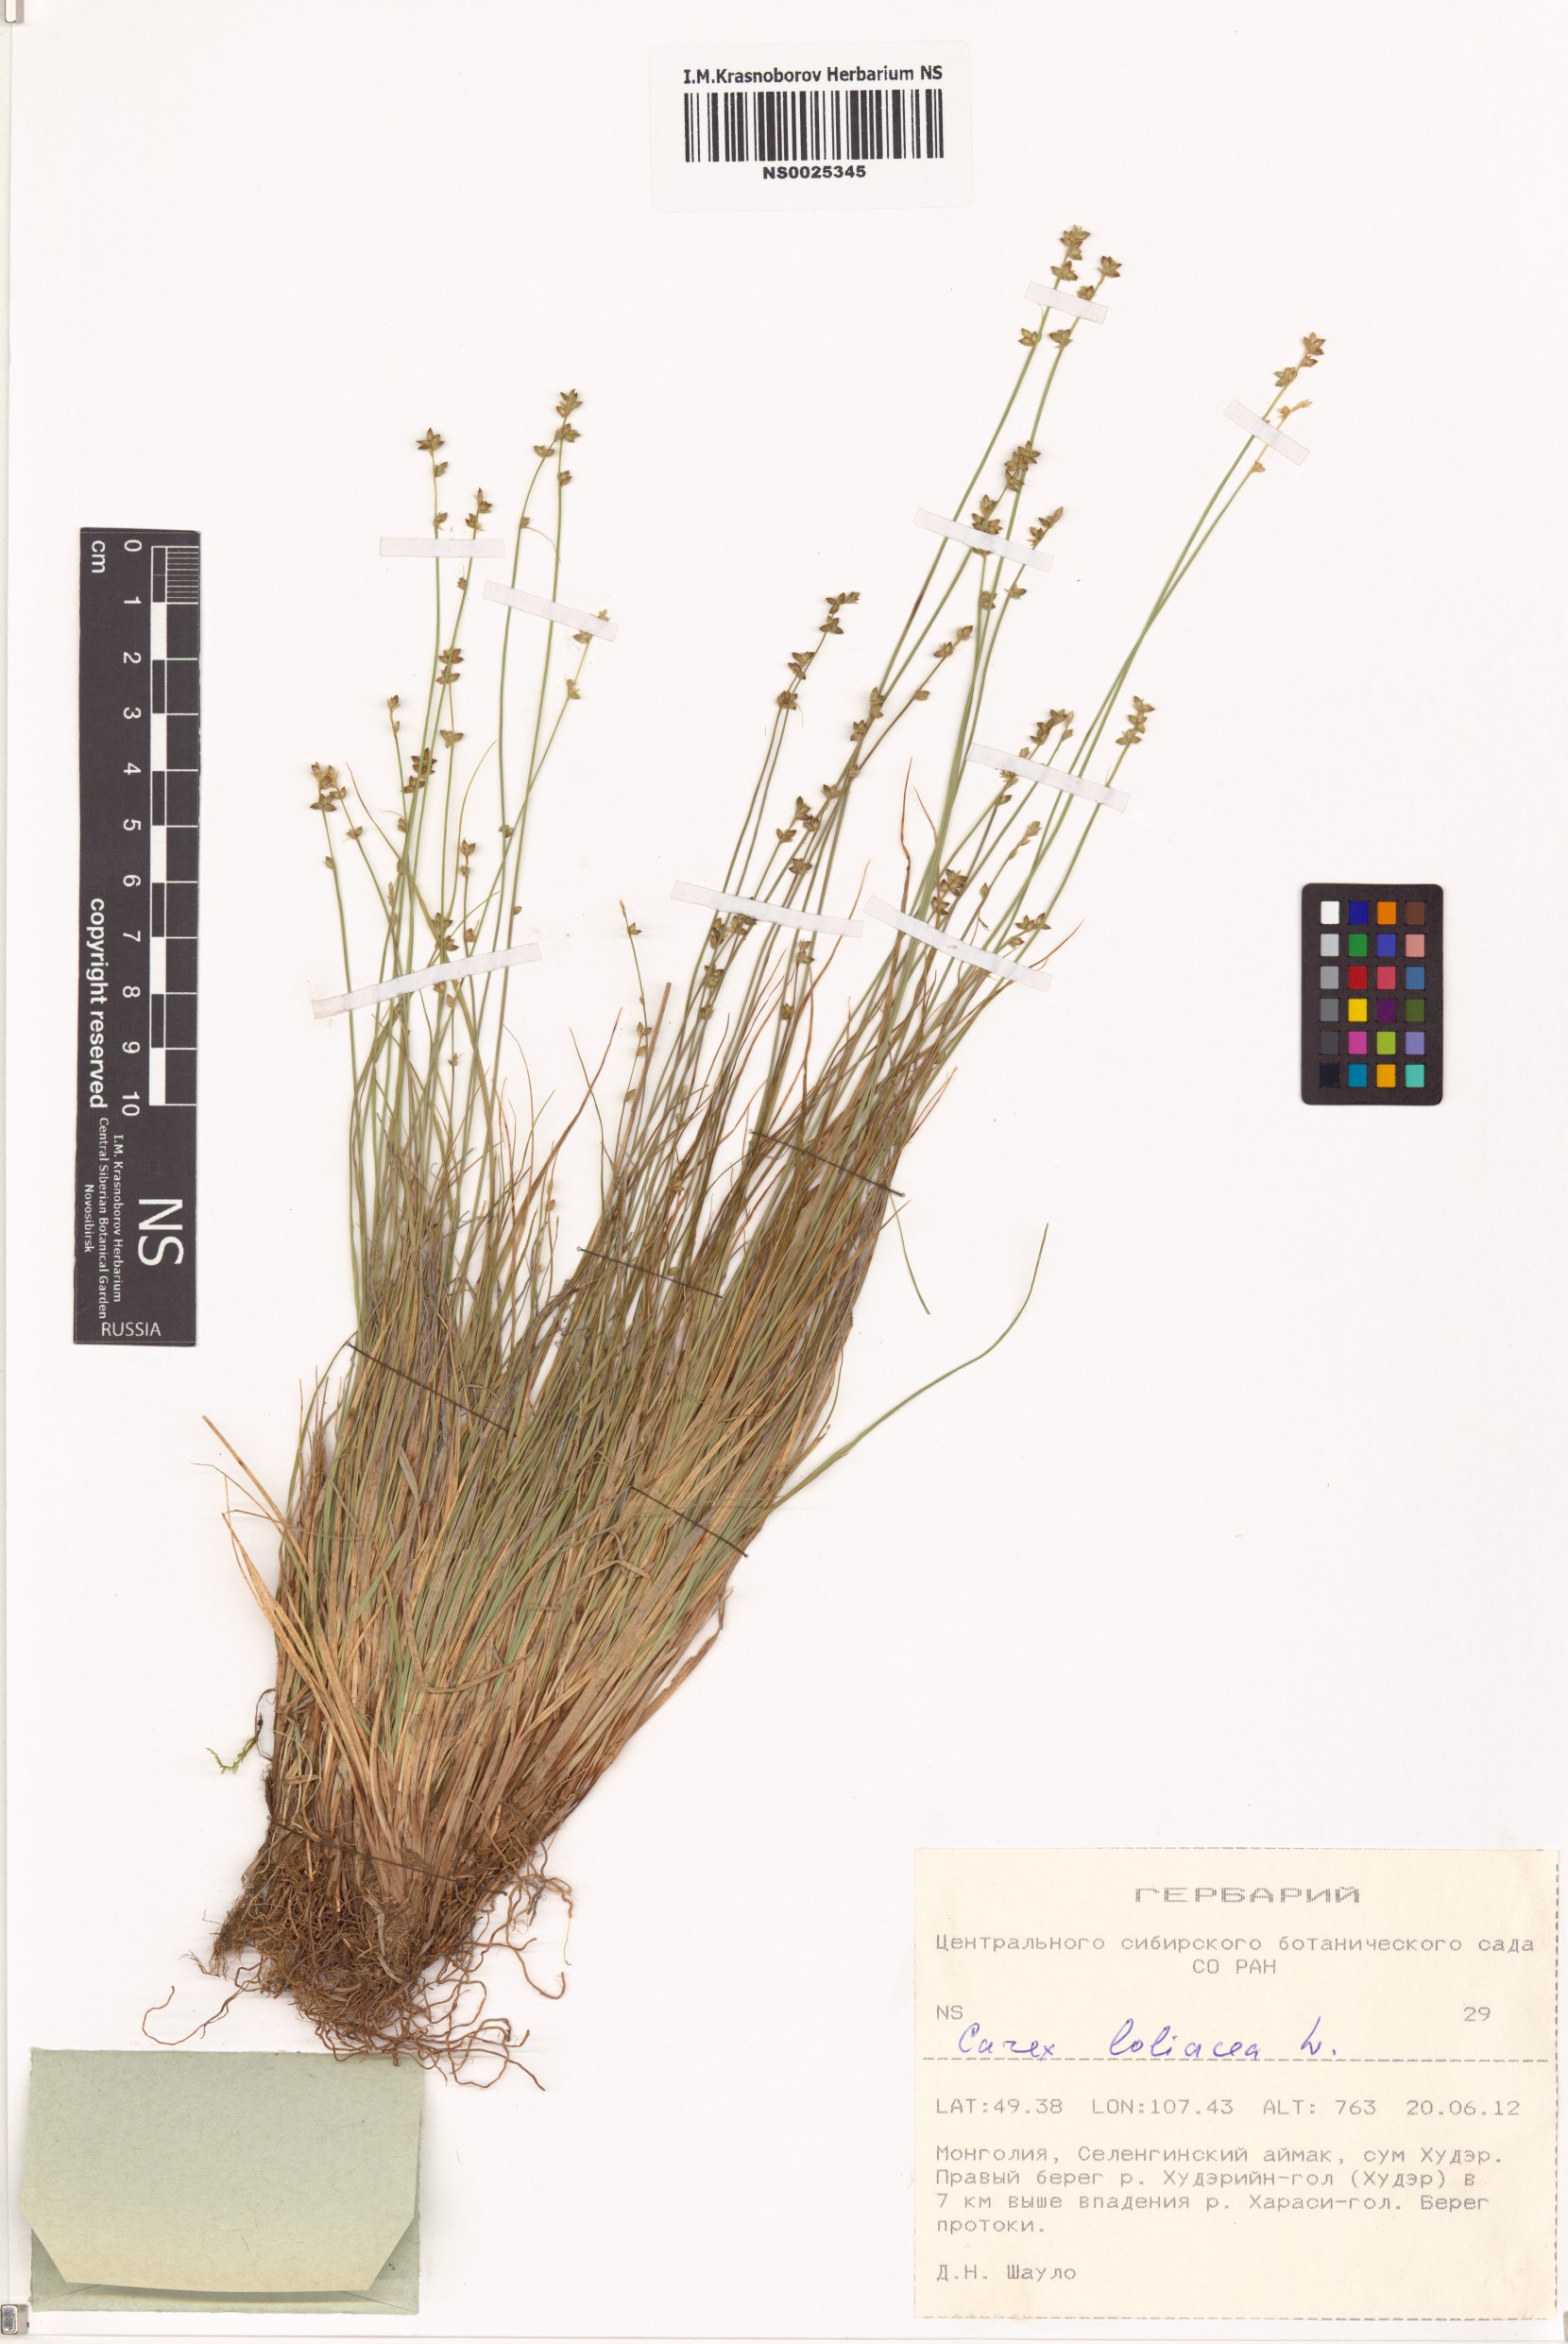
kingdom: Plantae
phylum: Tracheophyta
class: Liliopsida
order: Poales
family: Cyperaceae
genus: Carex
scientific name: Carex loliacea
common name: Ryegrass sedge
